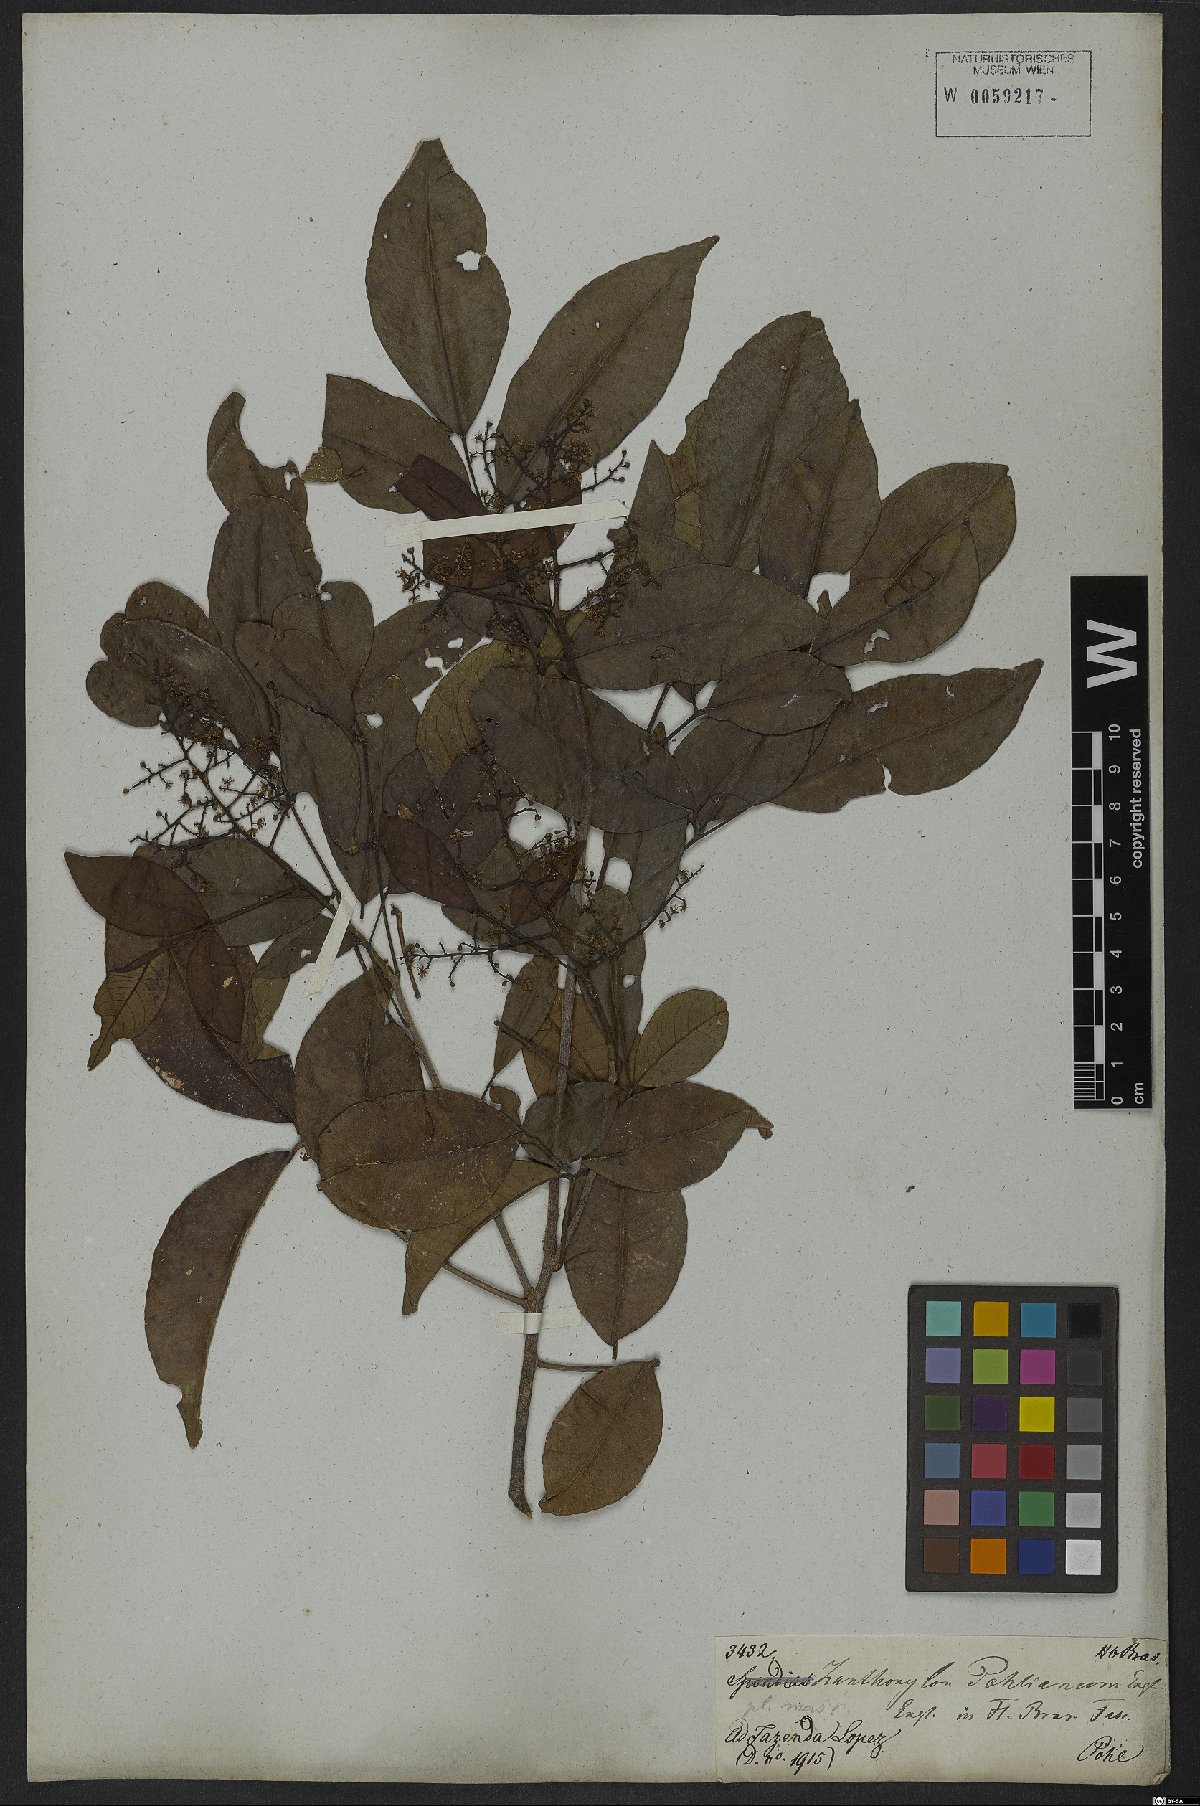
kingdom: Plantae
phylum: Tracheophyta
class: Magnoliopsida
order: Sapindales
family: Rutaceae
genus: Zanthoxylum
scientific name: Zanthoxylum monogynum
